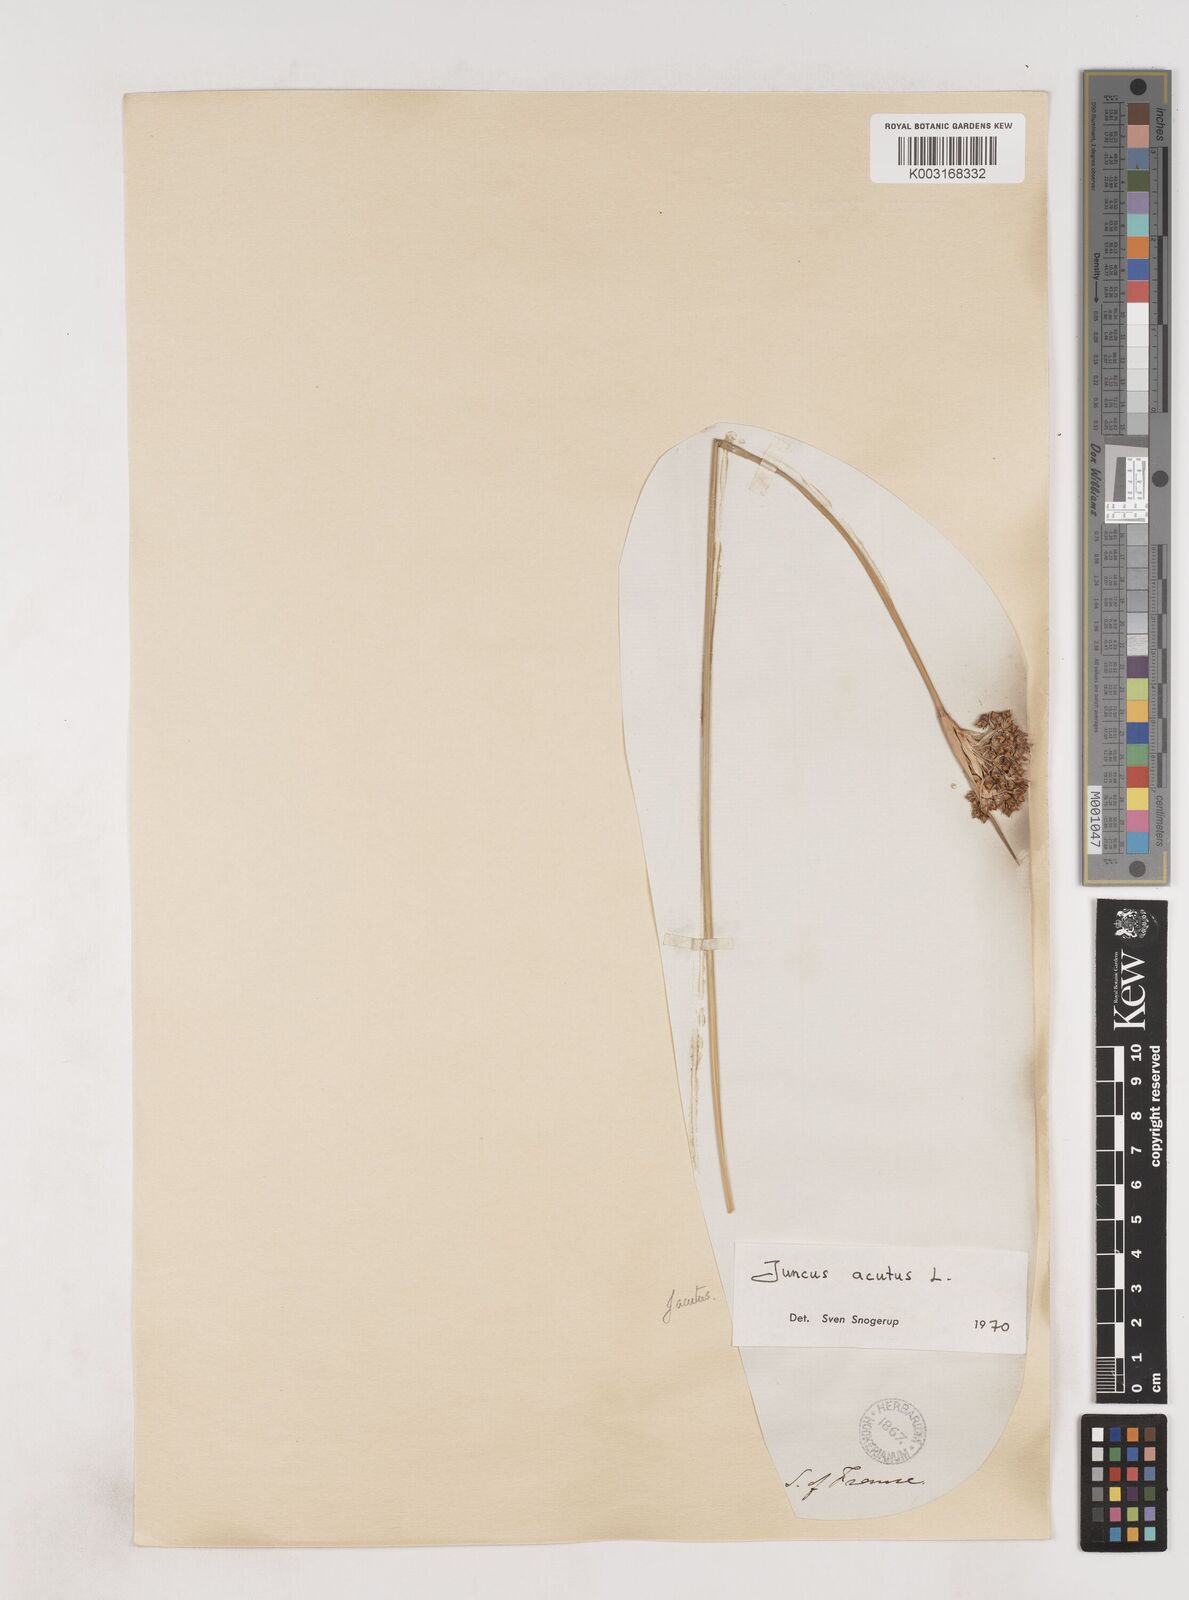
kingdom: Plantae
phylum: Tracheophyta
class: Liliopsida
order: Poales
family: Juncaceae
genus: Juncus
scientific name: Juncus acutus
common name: Sharp rush
